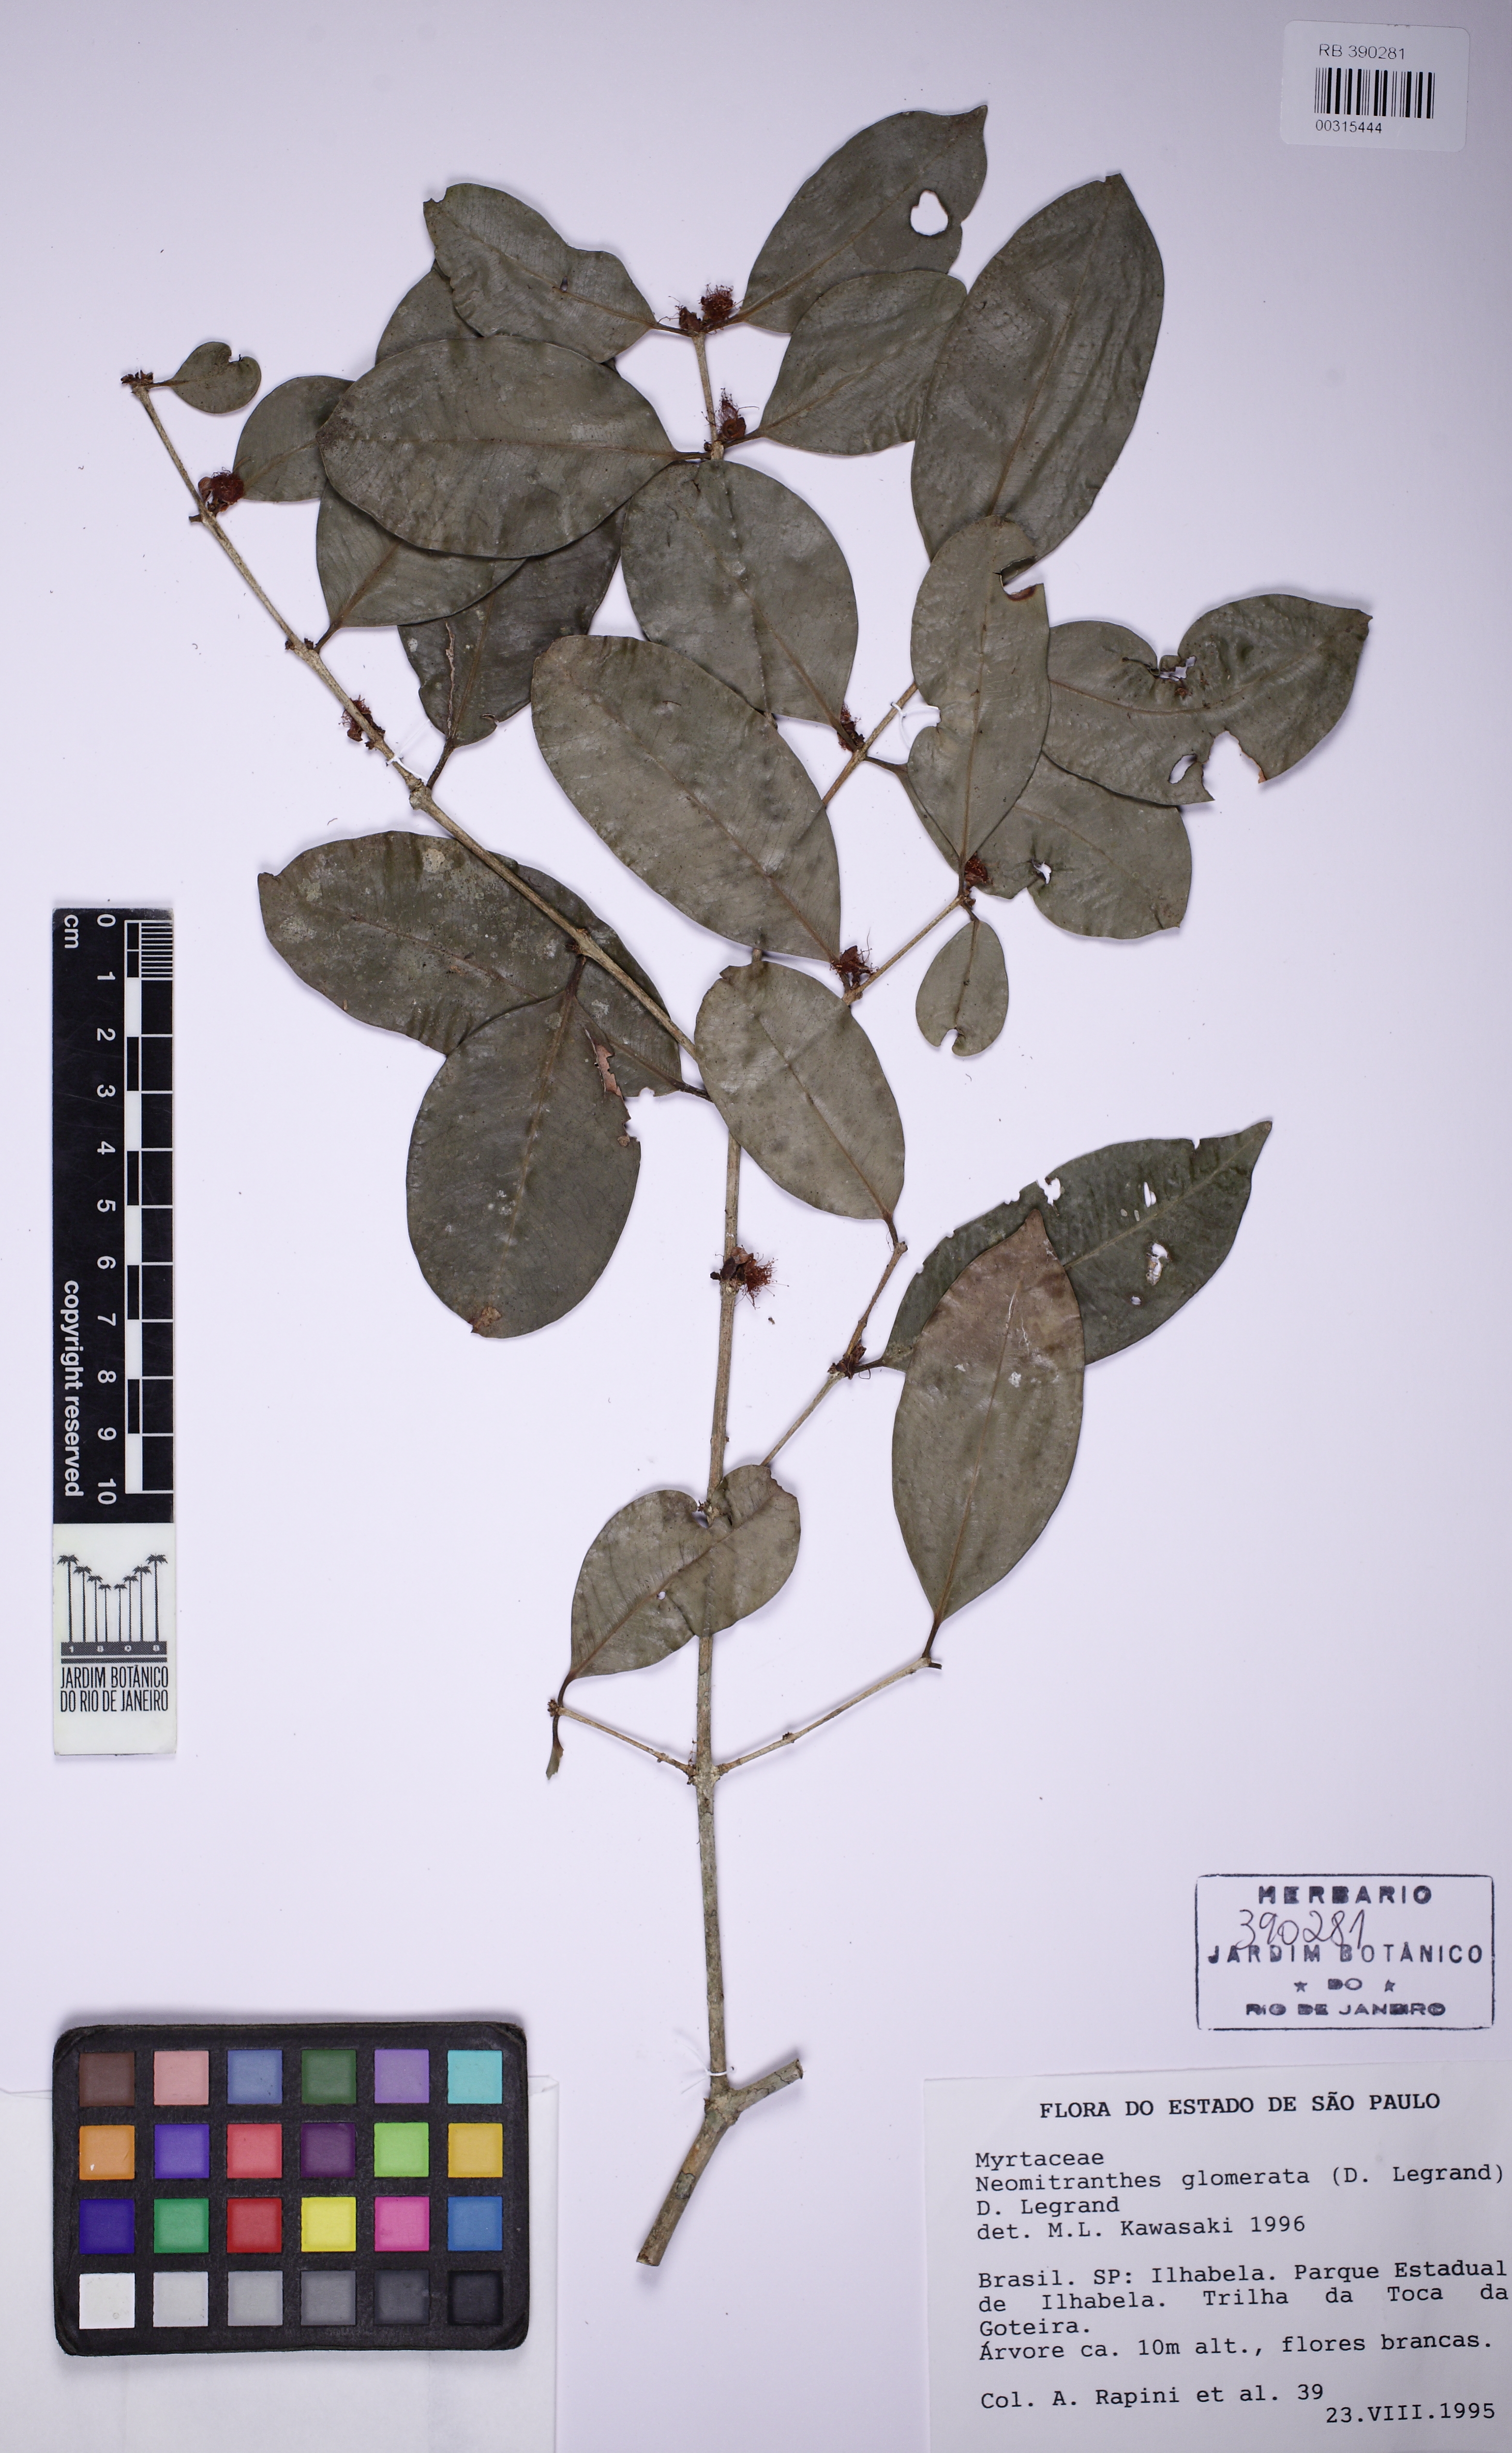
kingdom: Plantae
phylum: Tracheophyta
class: Magnoliopsida
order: Myrtales
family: Myrtaceae
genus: Neomitranthes
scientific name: Neomitranthes glomerata
